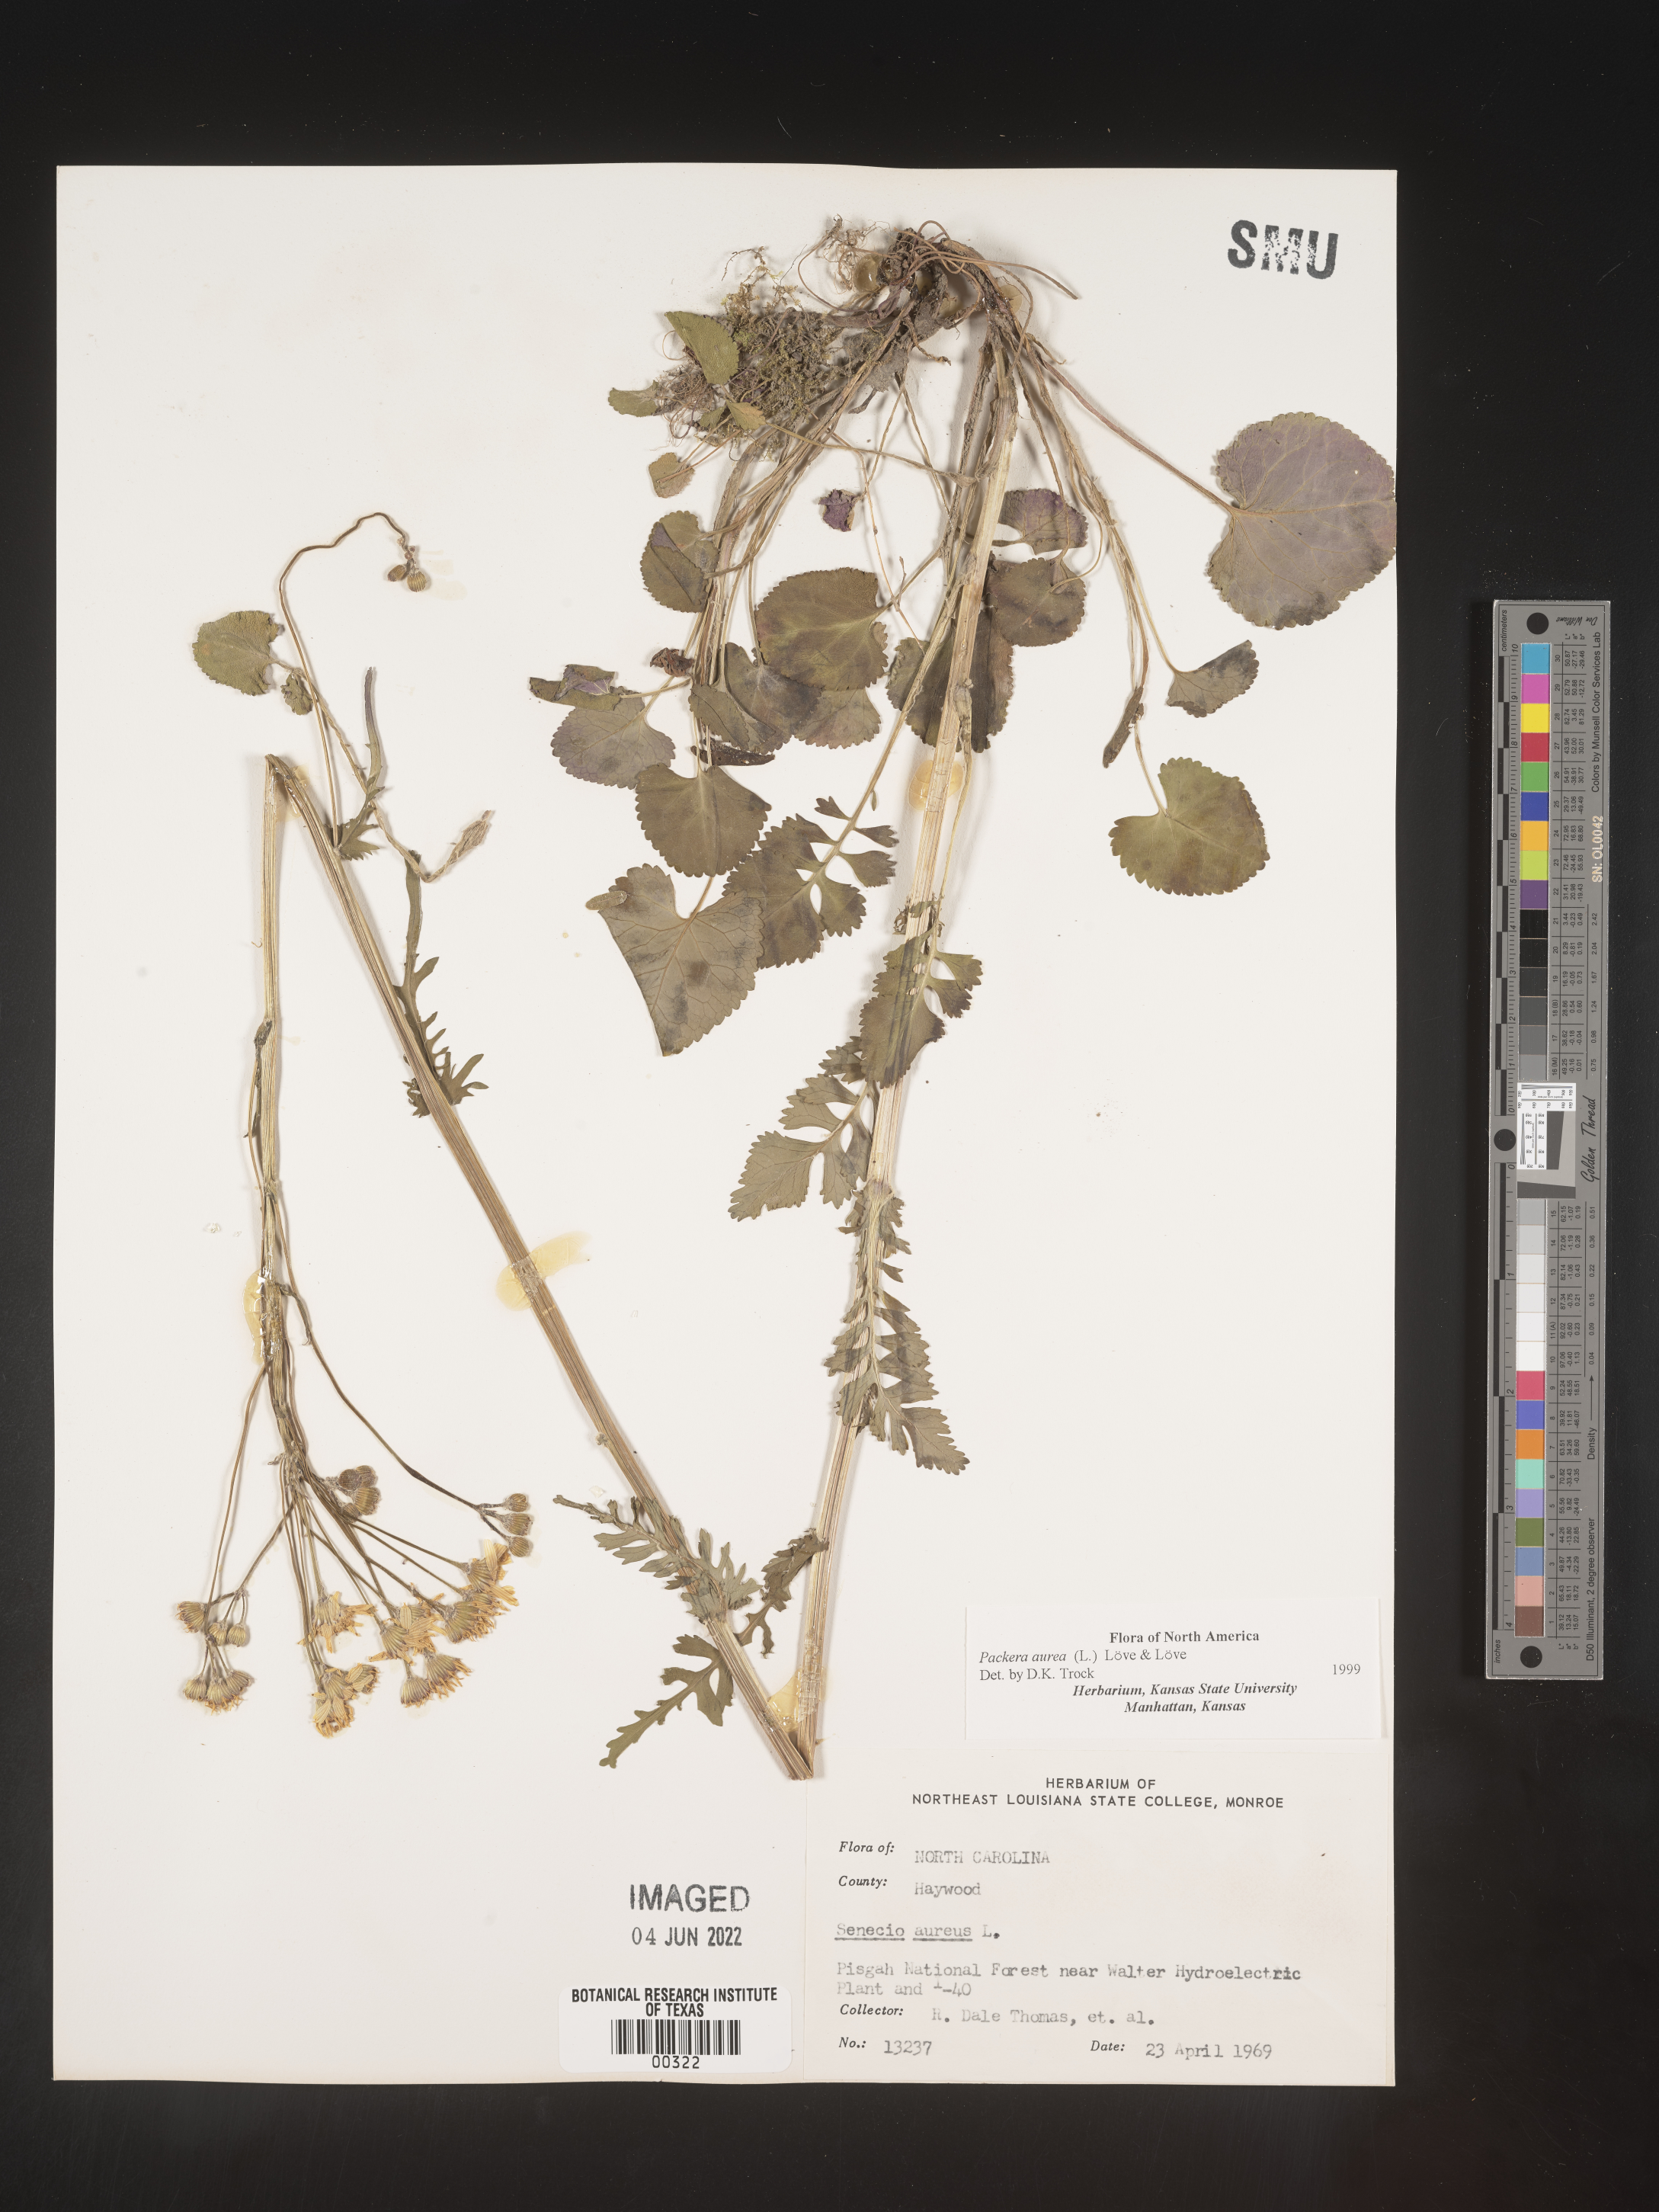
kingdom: Plantae
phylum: Tracheophyta
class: Magnoliopsida
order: Asterales
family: Asteraceae
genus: Packera
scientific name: Packera aurea
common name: Golden groundsel
